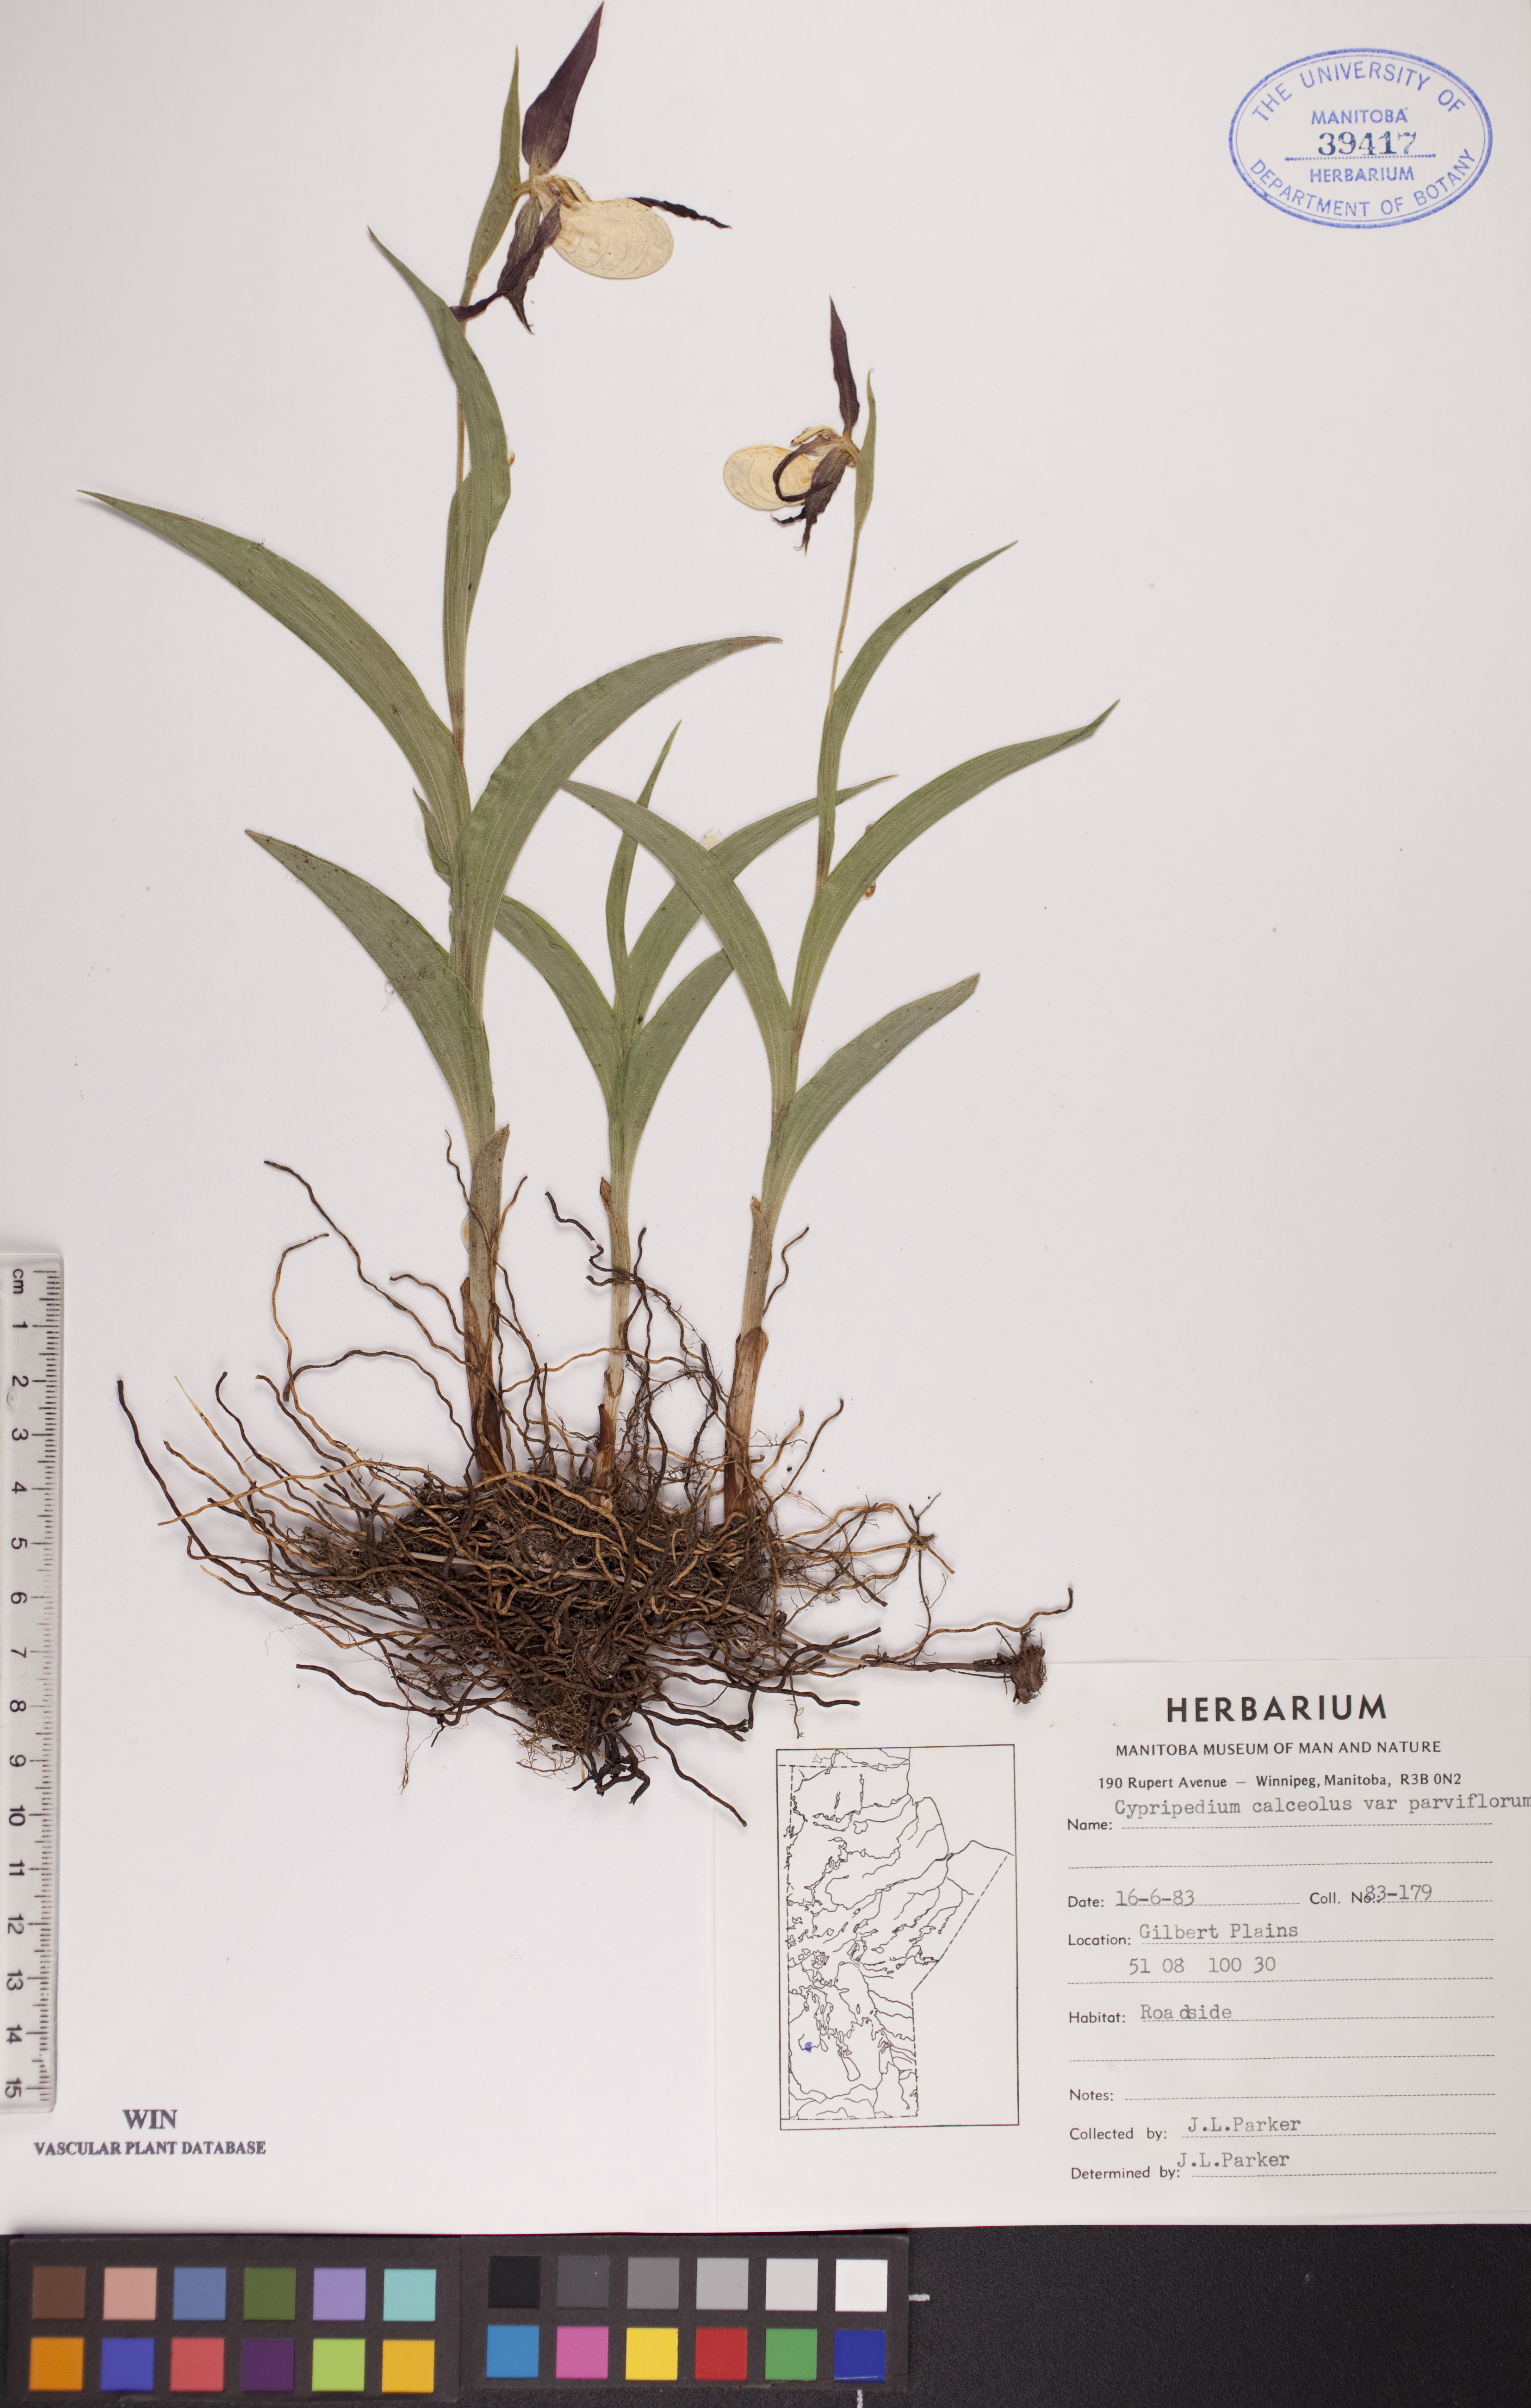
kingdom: Plantae
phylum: Tracheophyta
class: Liliopsida
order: Asparagales
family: Orchidaceae
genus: Cypripedium
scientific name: Cypripedium parviflorum
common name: American yellow lady's-slipper
